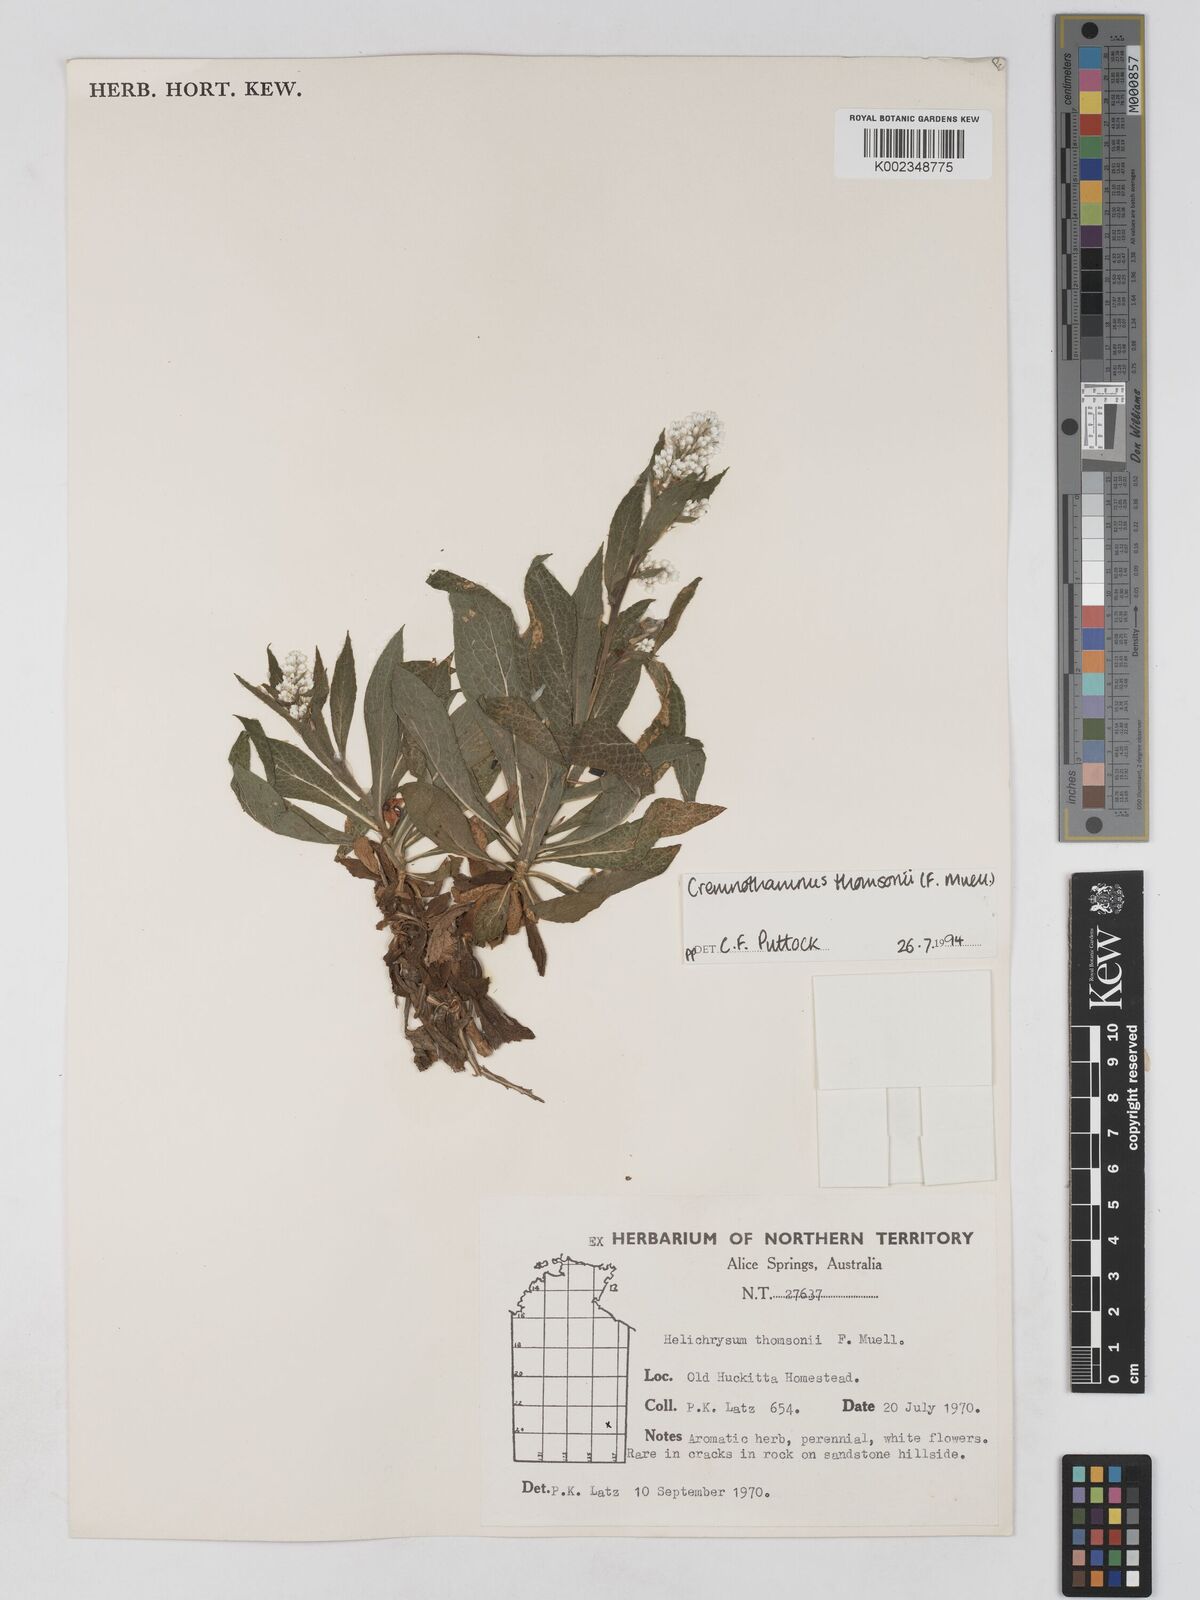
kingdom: Plantae
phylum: Tracheophyta
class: Magnoliopsida
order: Asterales
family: Asteraceae
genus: Cremnothamnus
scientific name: Cremnothamnus thomsonii
